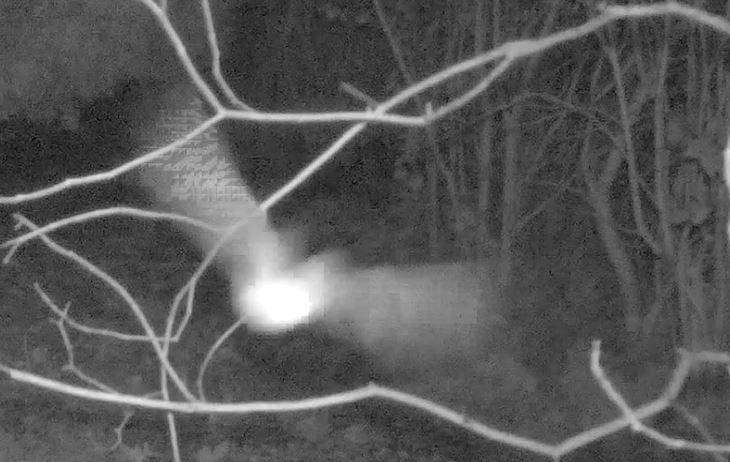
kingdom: Animalia
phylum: Chordata
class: Mammalia
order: Chiroptera
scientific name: Chiroptera
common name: Flagermus
